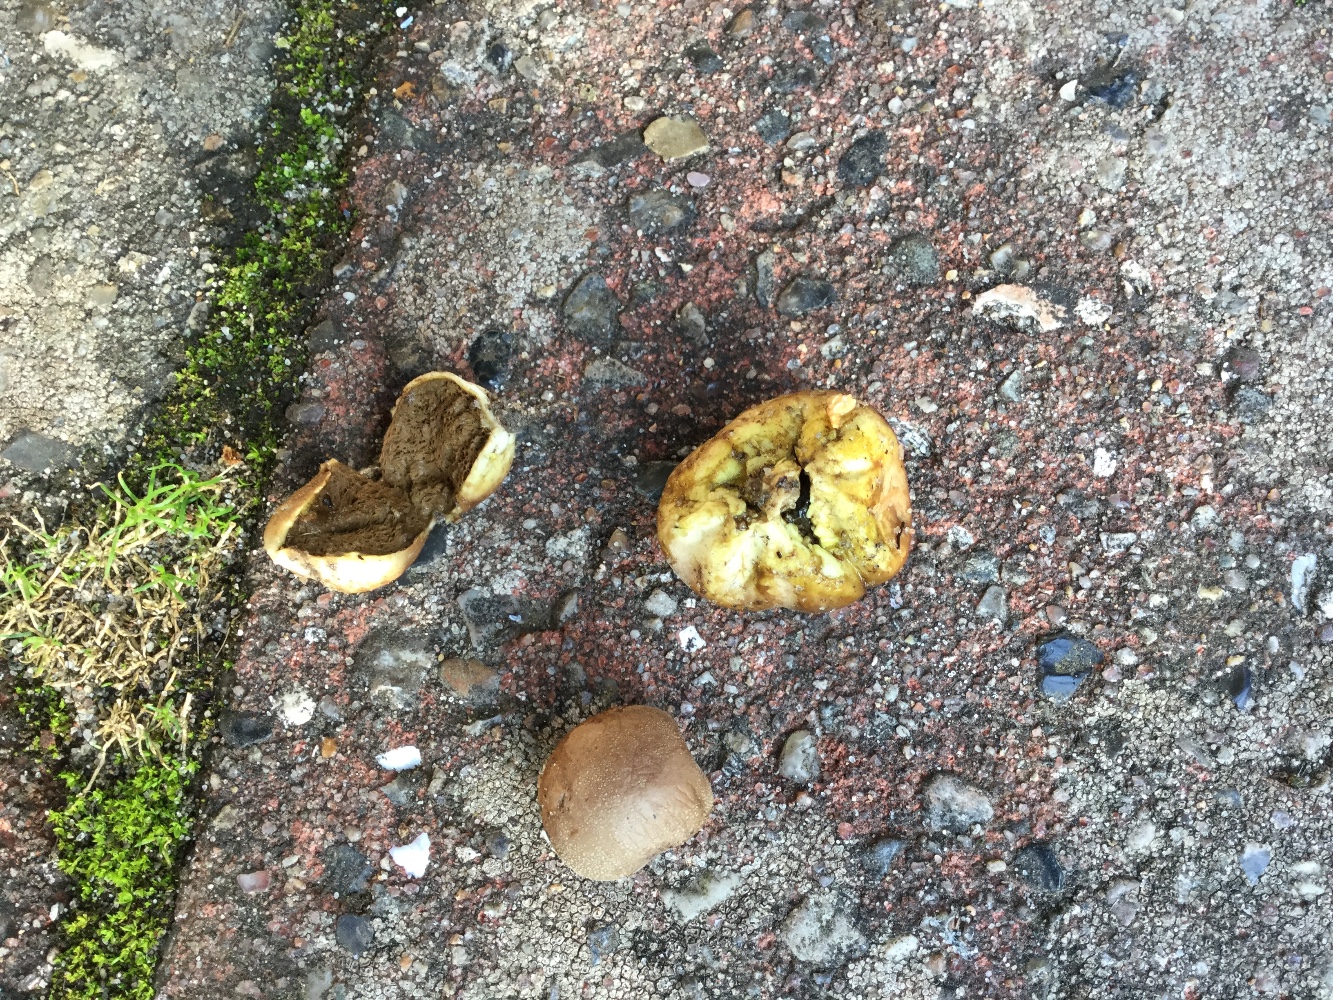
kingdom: Fungi
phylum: Basidiomycota
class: Agaricomycetes
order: Agaricales
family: Lycoperdaceae
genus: Bovista
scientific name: Bovista furfuracea
